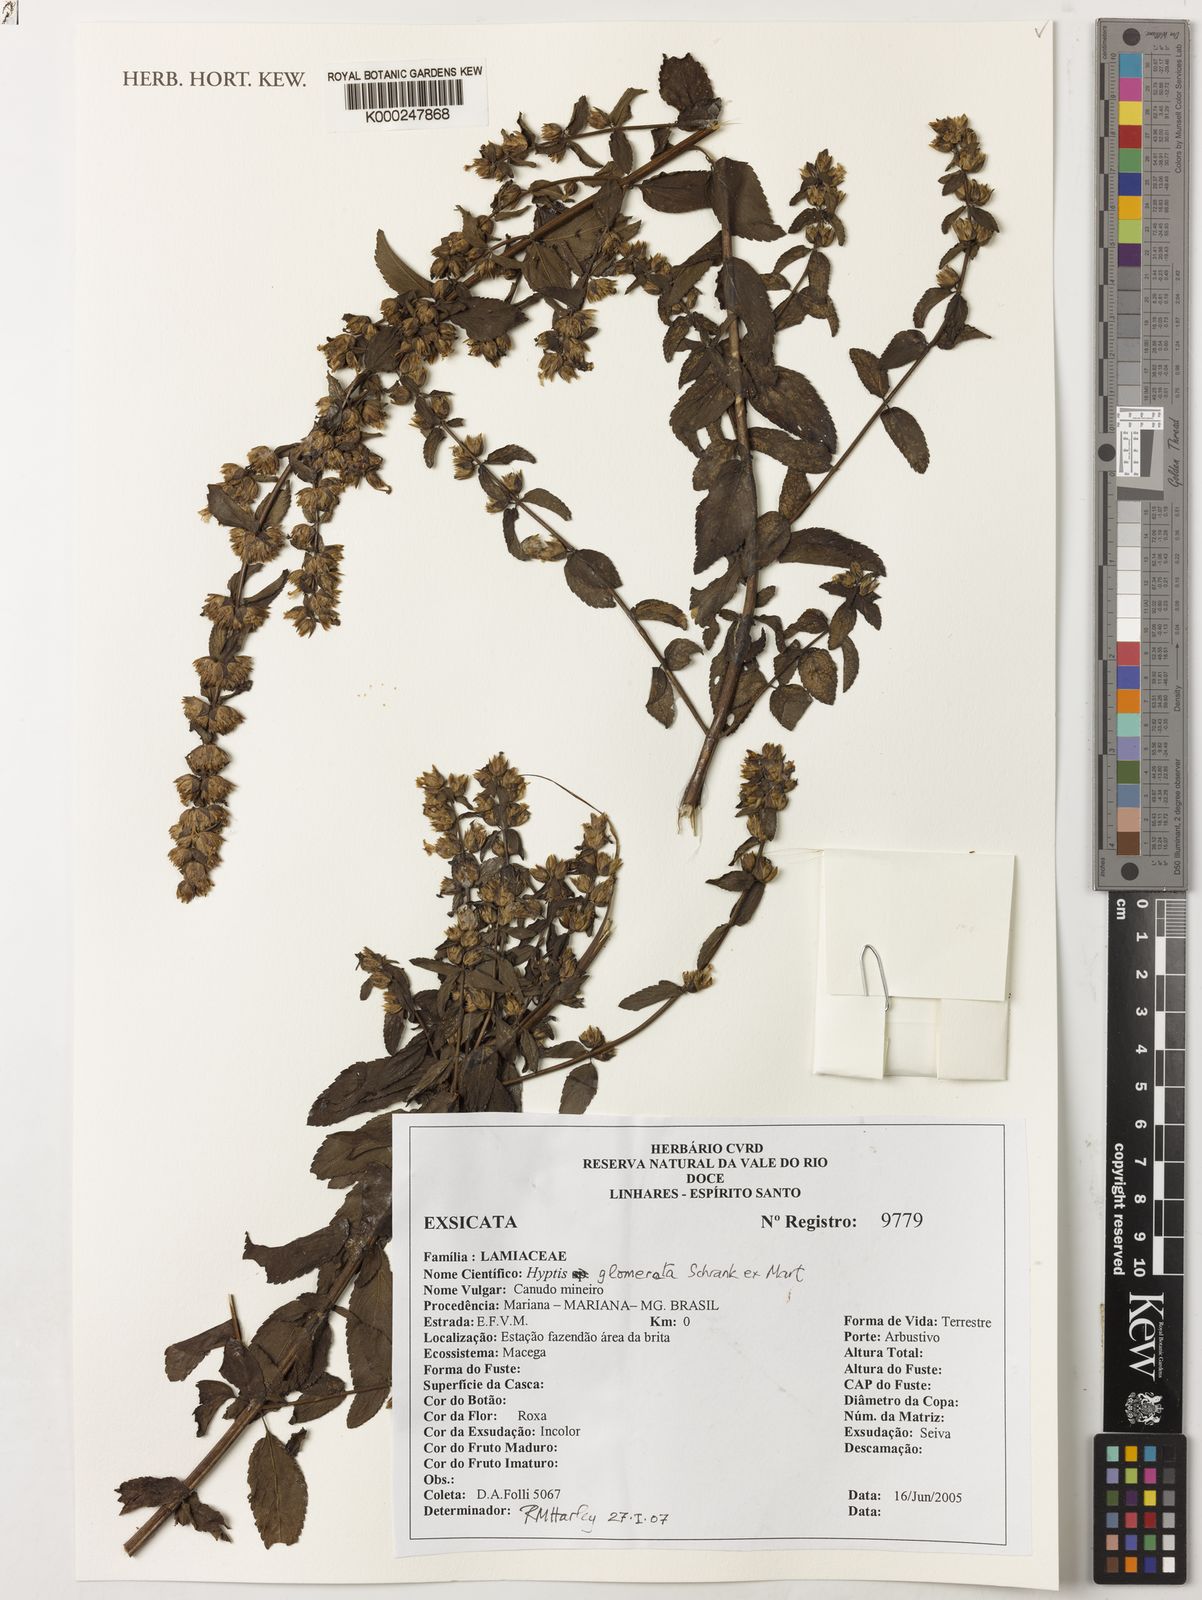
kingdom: Plantae
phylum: Tracheophyta
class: Magnoliopsida
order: Lamiales
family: Lamiaceae
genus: Hyptis
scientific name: Hyptis
